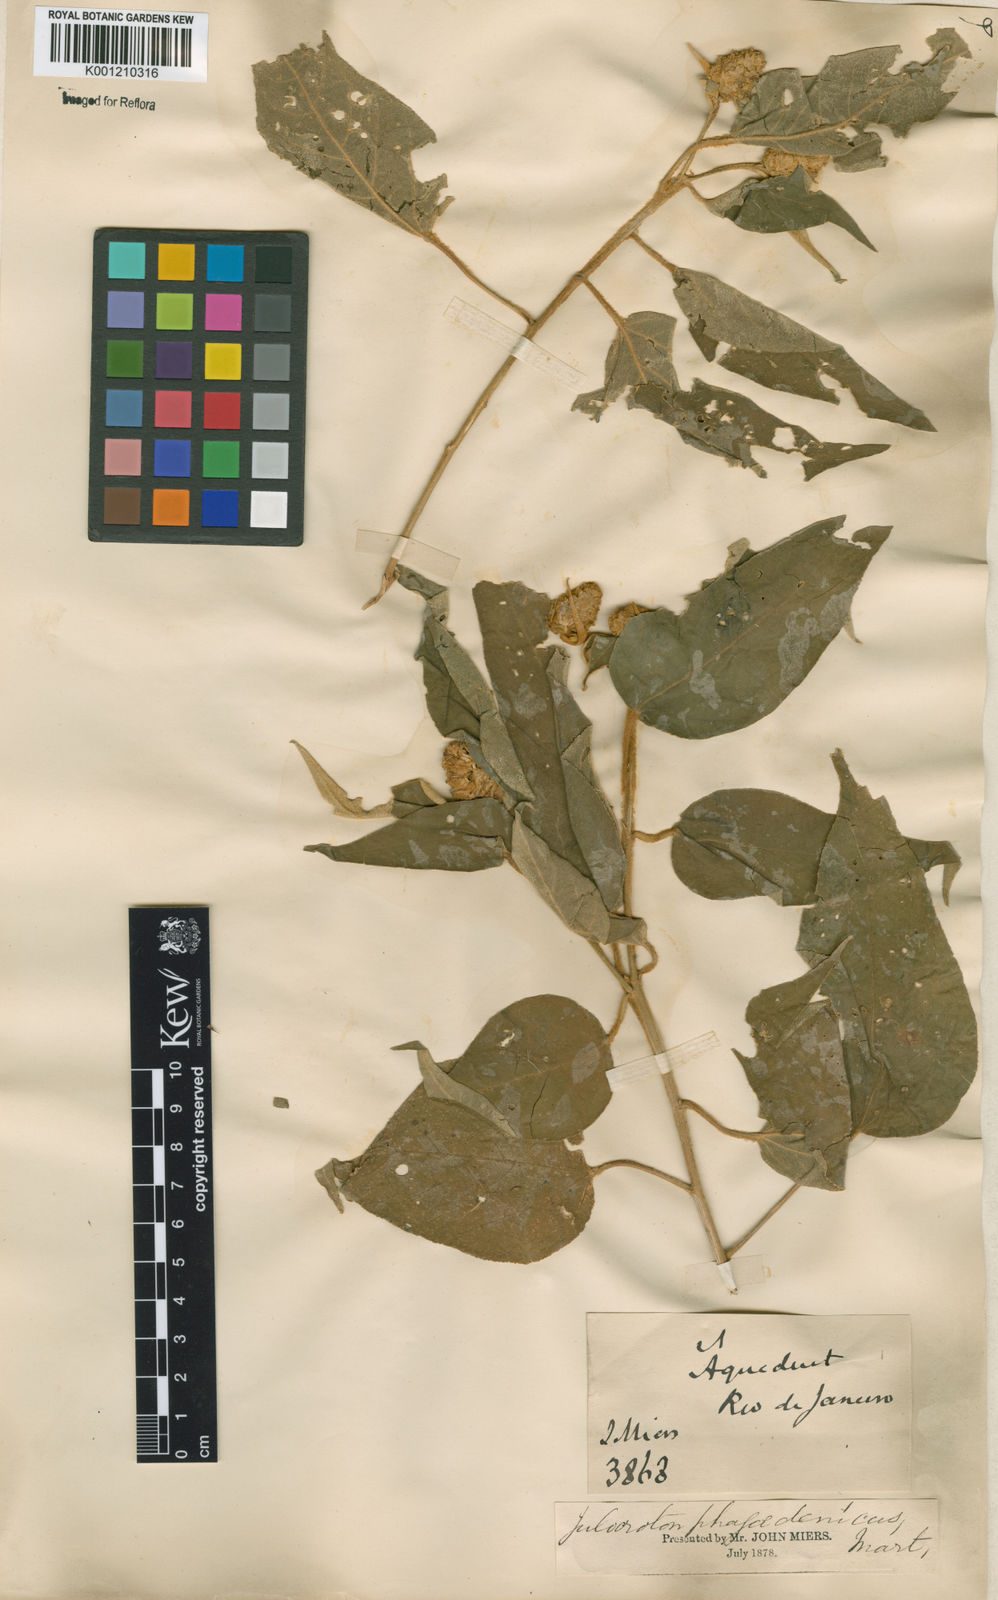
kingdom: Plantae
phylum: Tracheophyta
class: Magnoliopsida
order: Malpighiales
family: Euphorbiaceae
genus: Croton
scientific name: Croton triqueter
